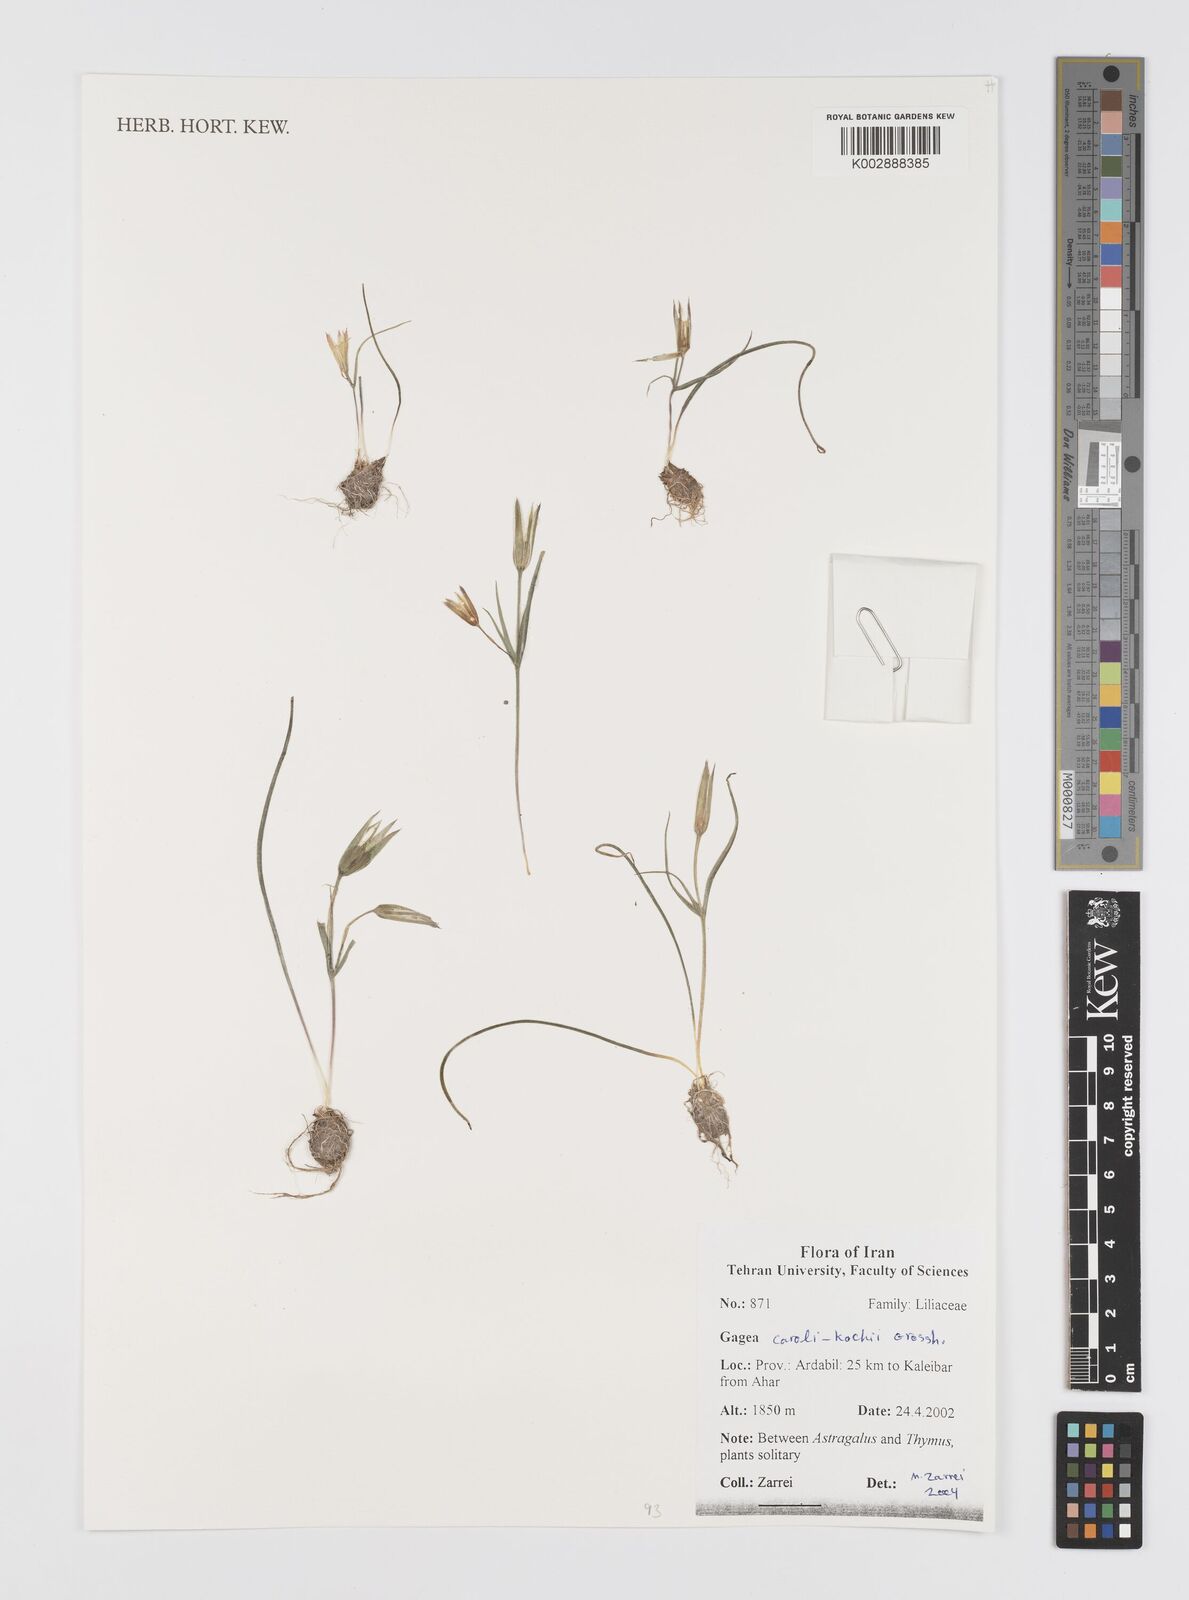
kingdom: Plantae
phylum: Tracheophyta
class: Liliopsida
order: Liliales
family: Liliaceae
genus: Gagea
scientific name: Gagea caroli-kochii
